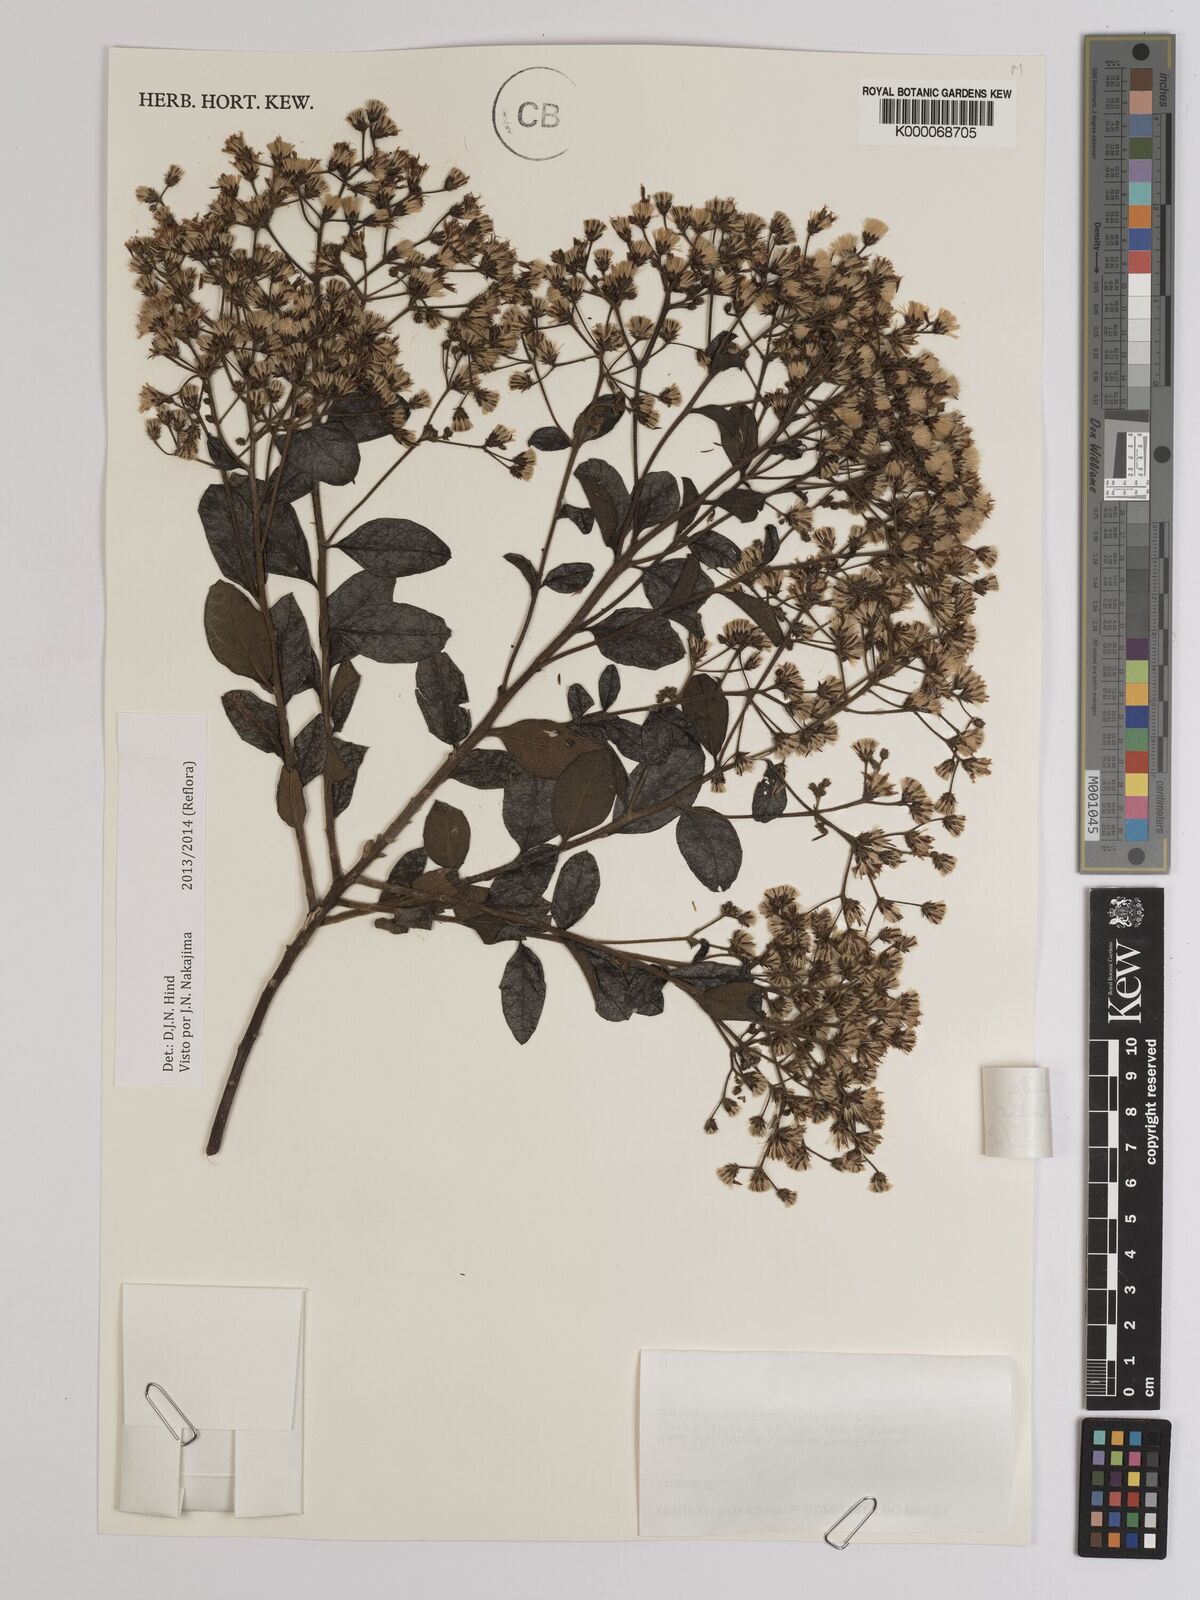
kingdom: Plantae
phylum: Tracheophyta
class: Magnoliopsida
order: Asterales
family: Asteraceae
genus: Vernonia
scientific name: Vernonia
